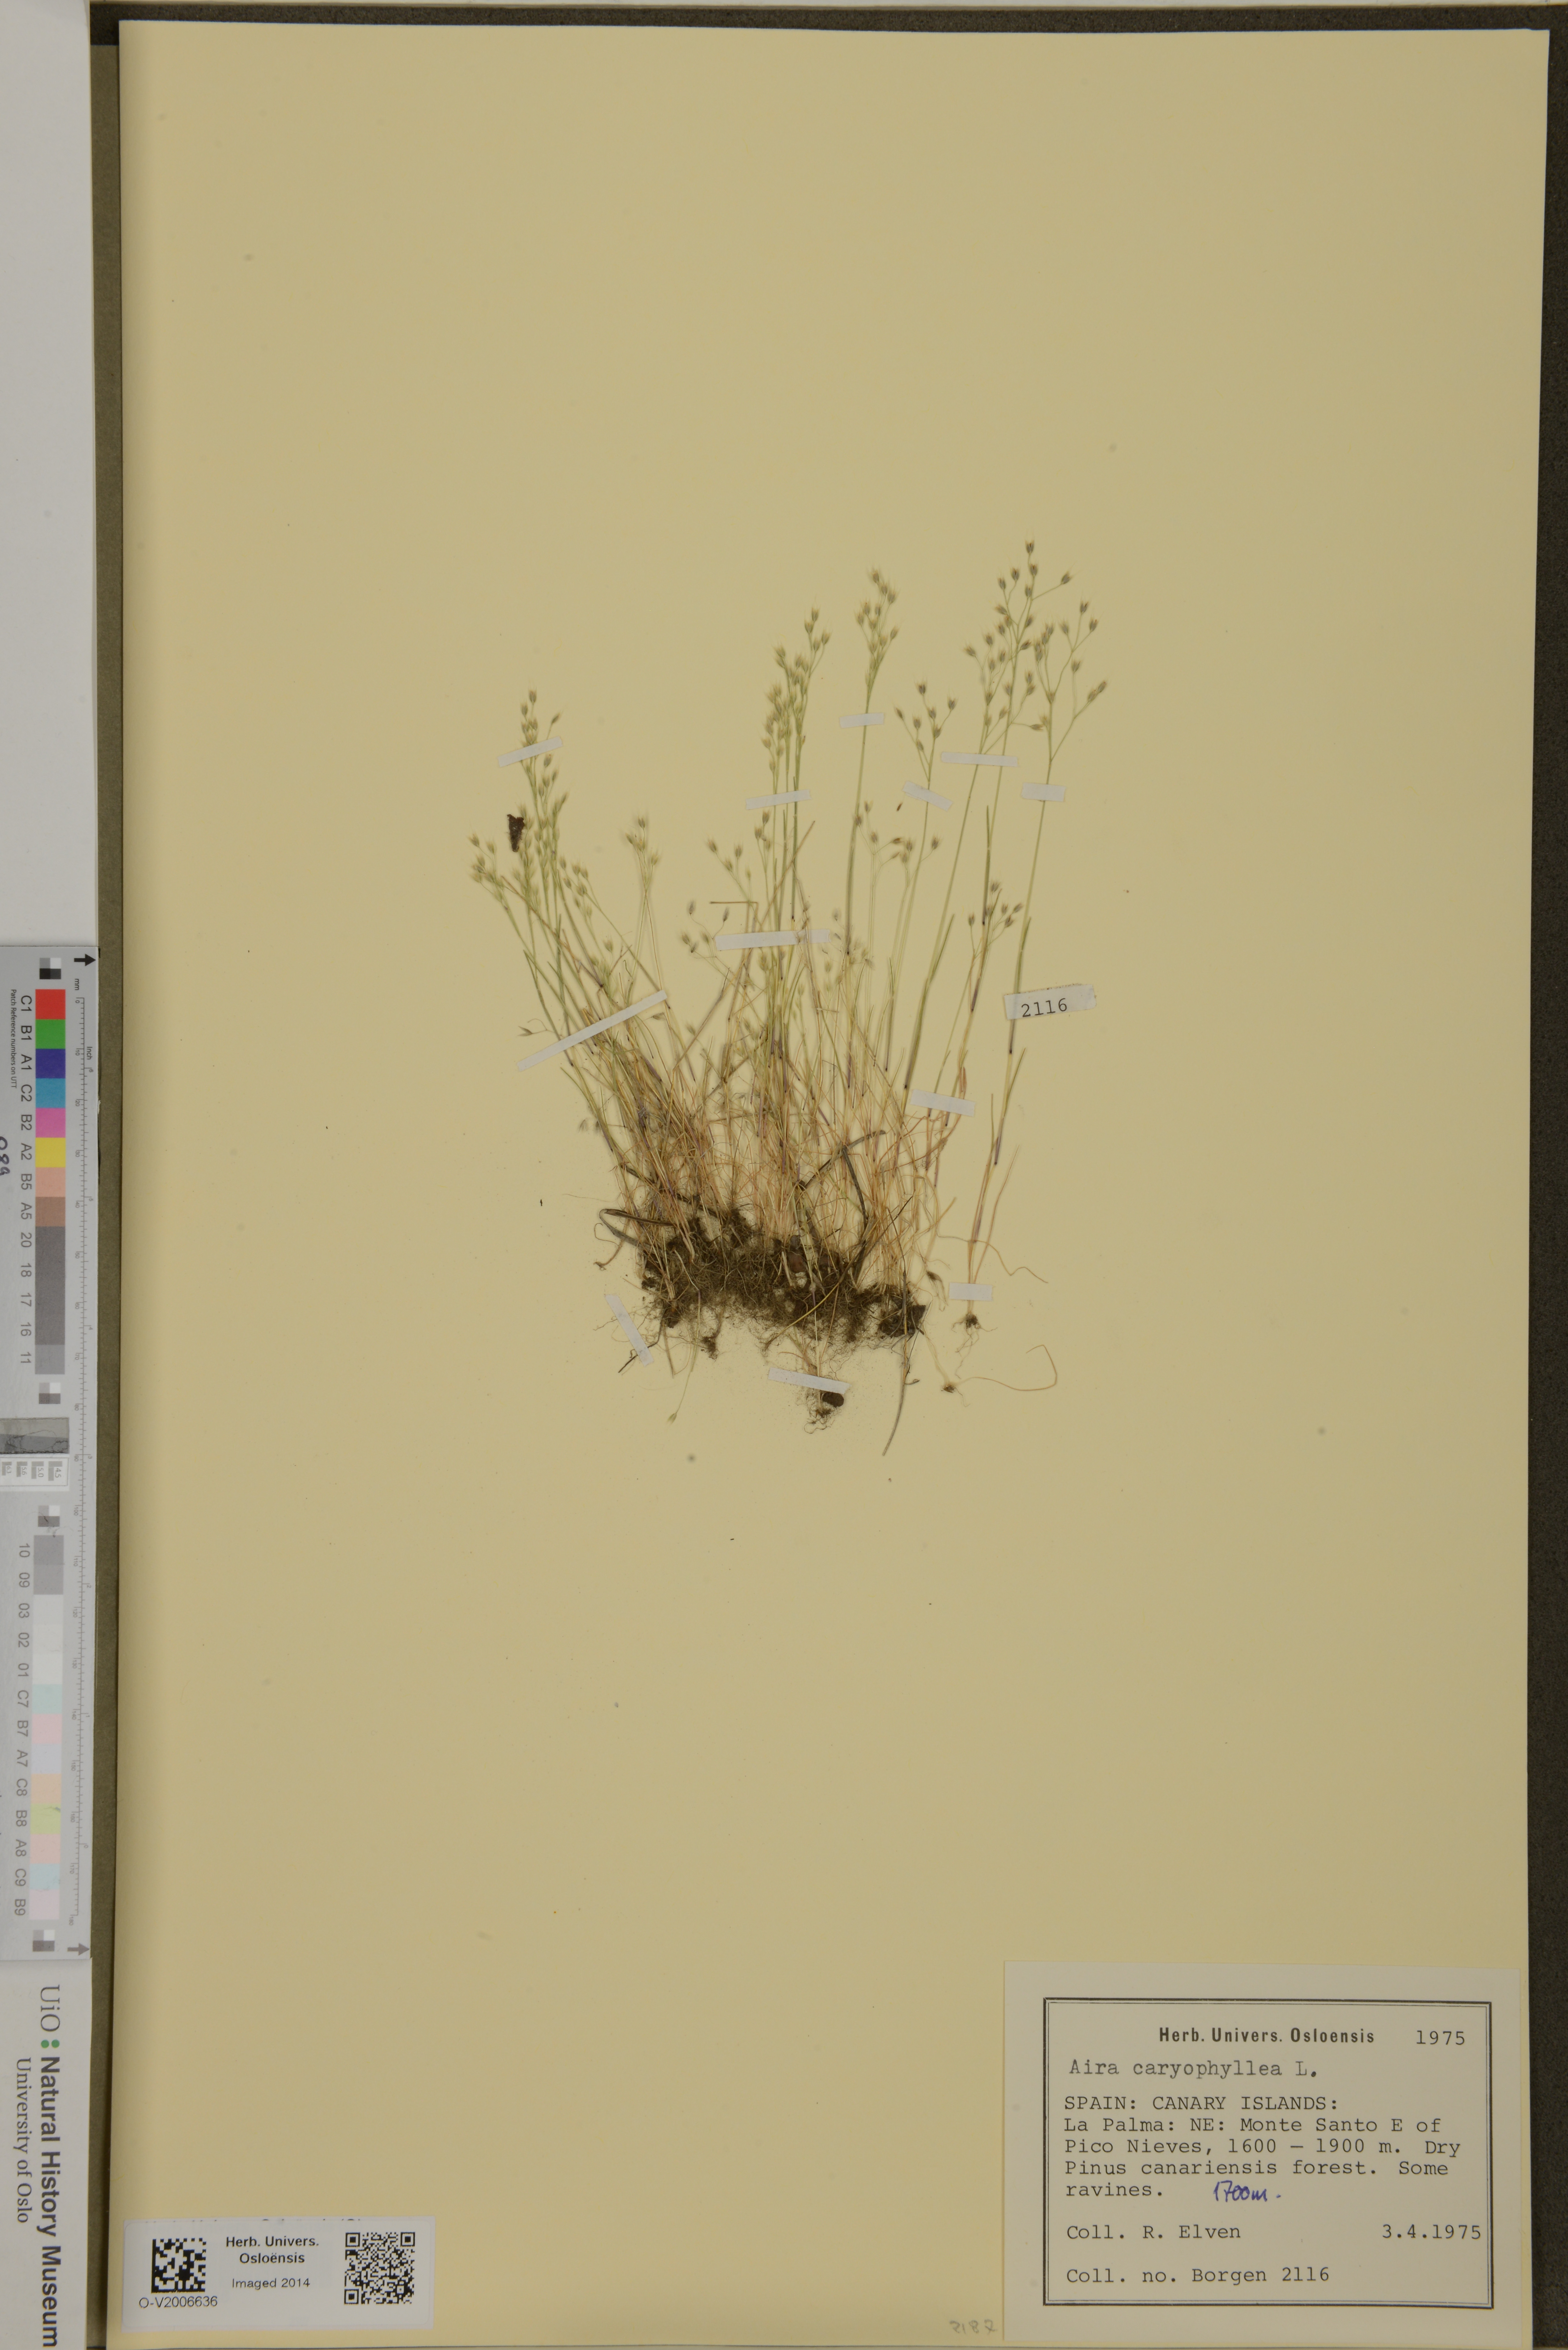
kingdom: Plantae
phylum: Tracheophyta
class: Liliopsida
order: Poales
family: Poaceae
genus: Aira
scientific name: Aira caryophyllea
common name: Silver hairgrass
